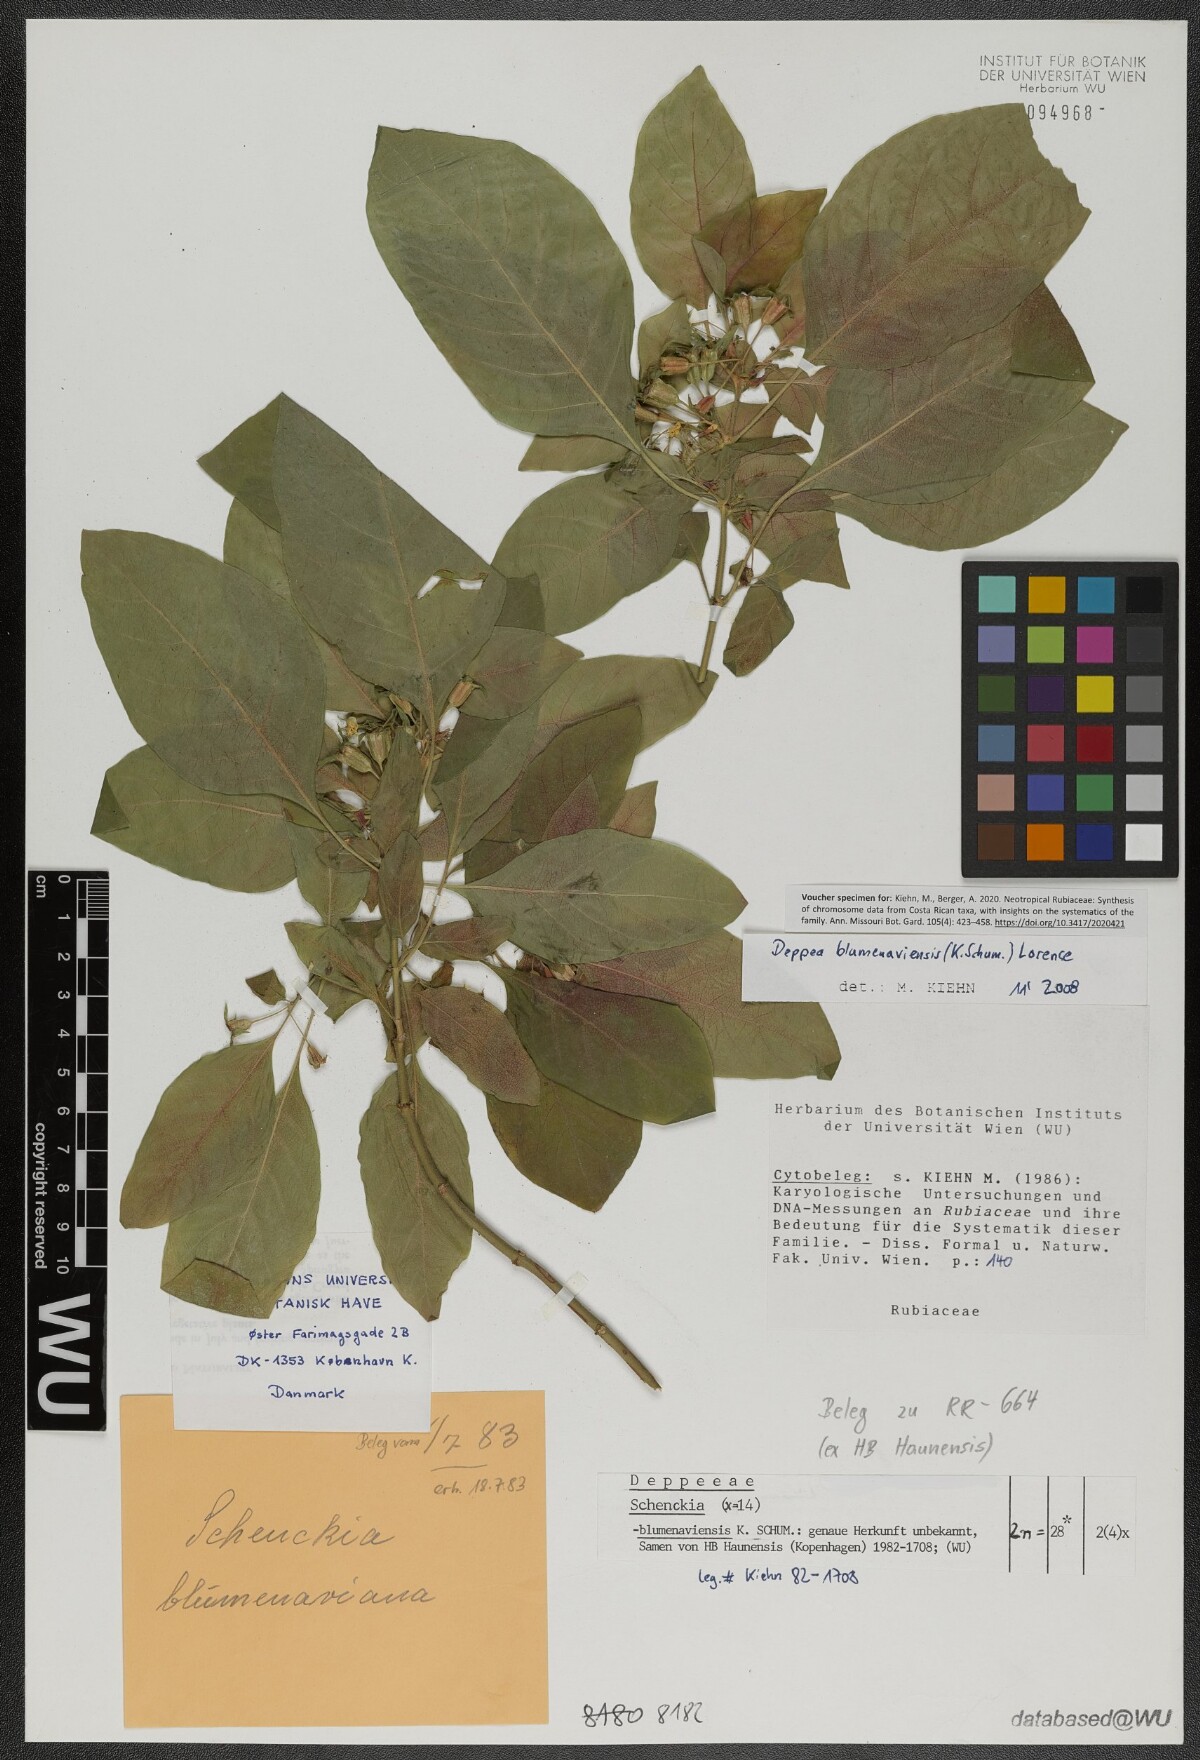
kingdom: Plantae
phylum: Tracheophyta
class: Magnoliopsida
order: Gentianales
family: Rubiaceae
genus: Deppea
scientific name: Deppea blumenaviensis
